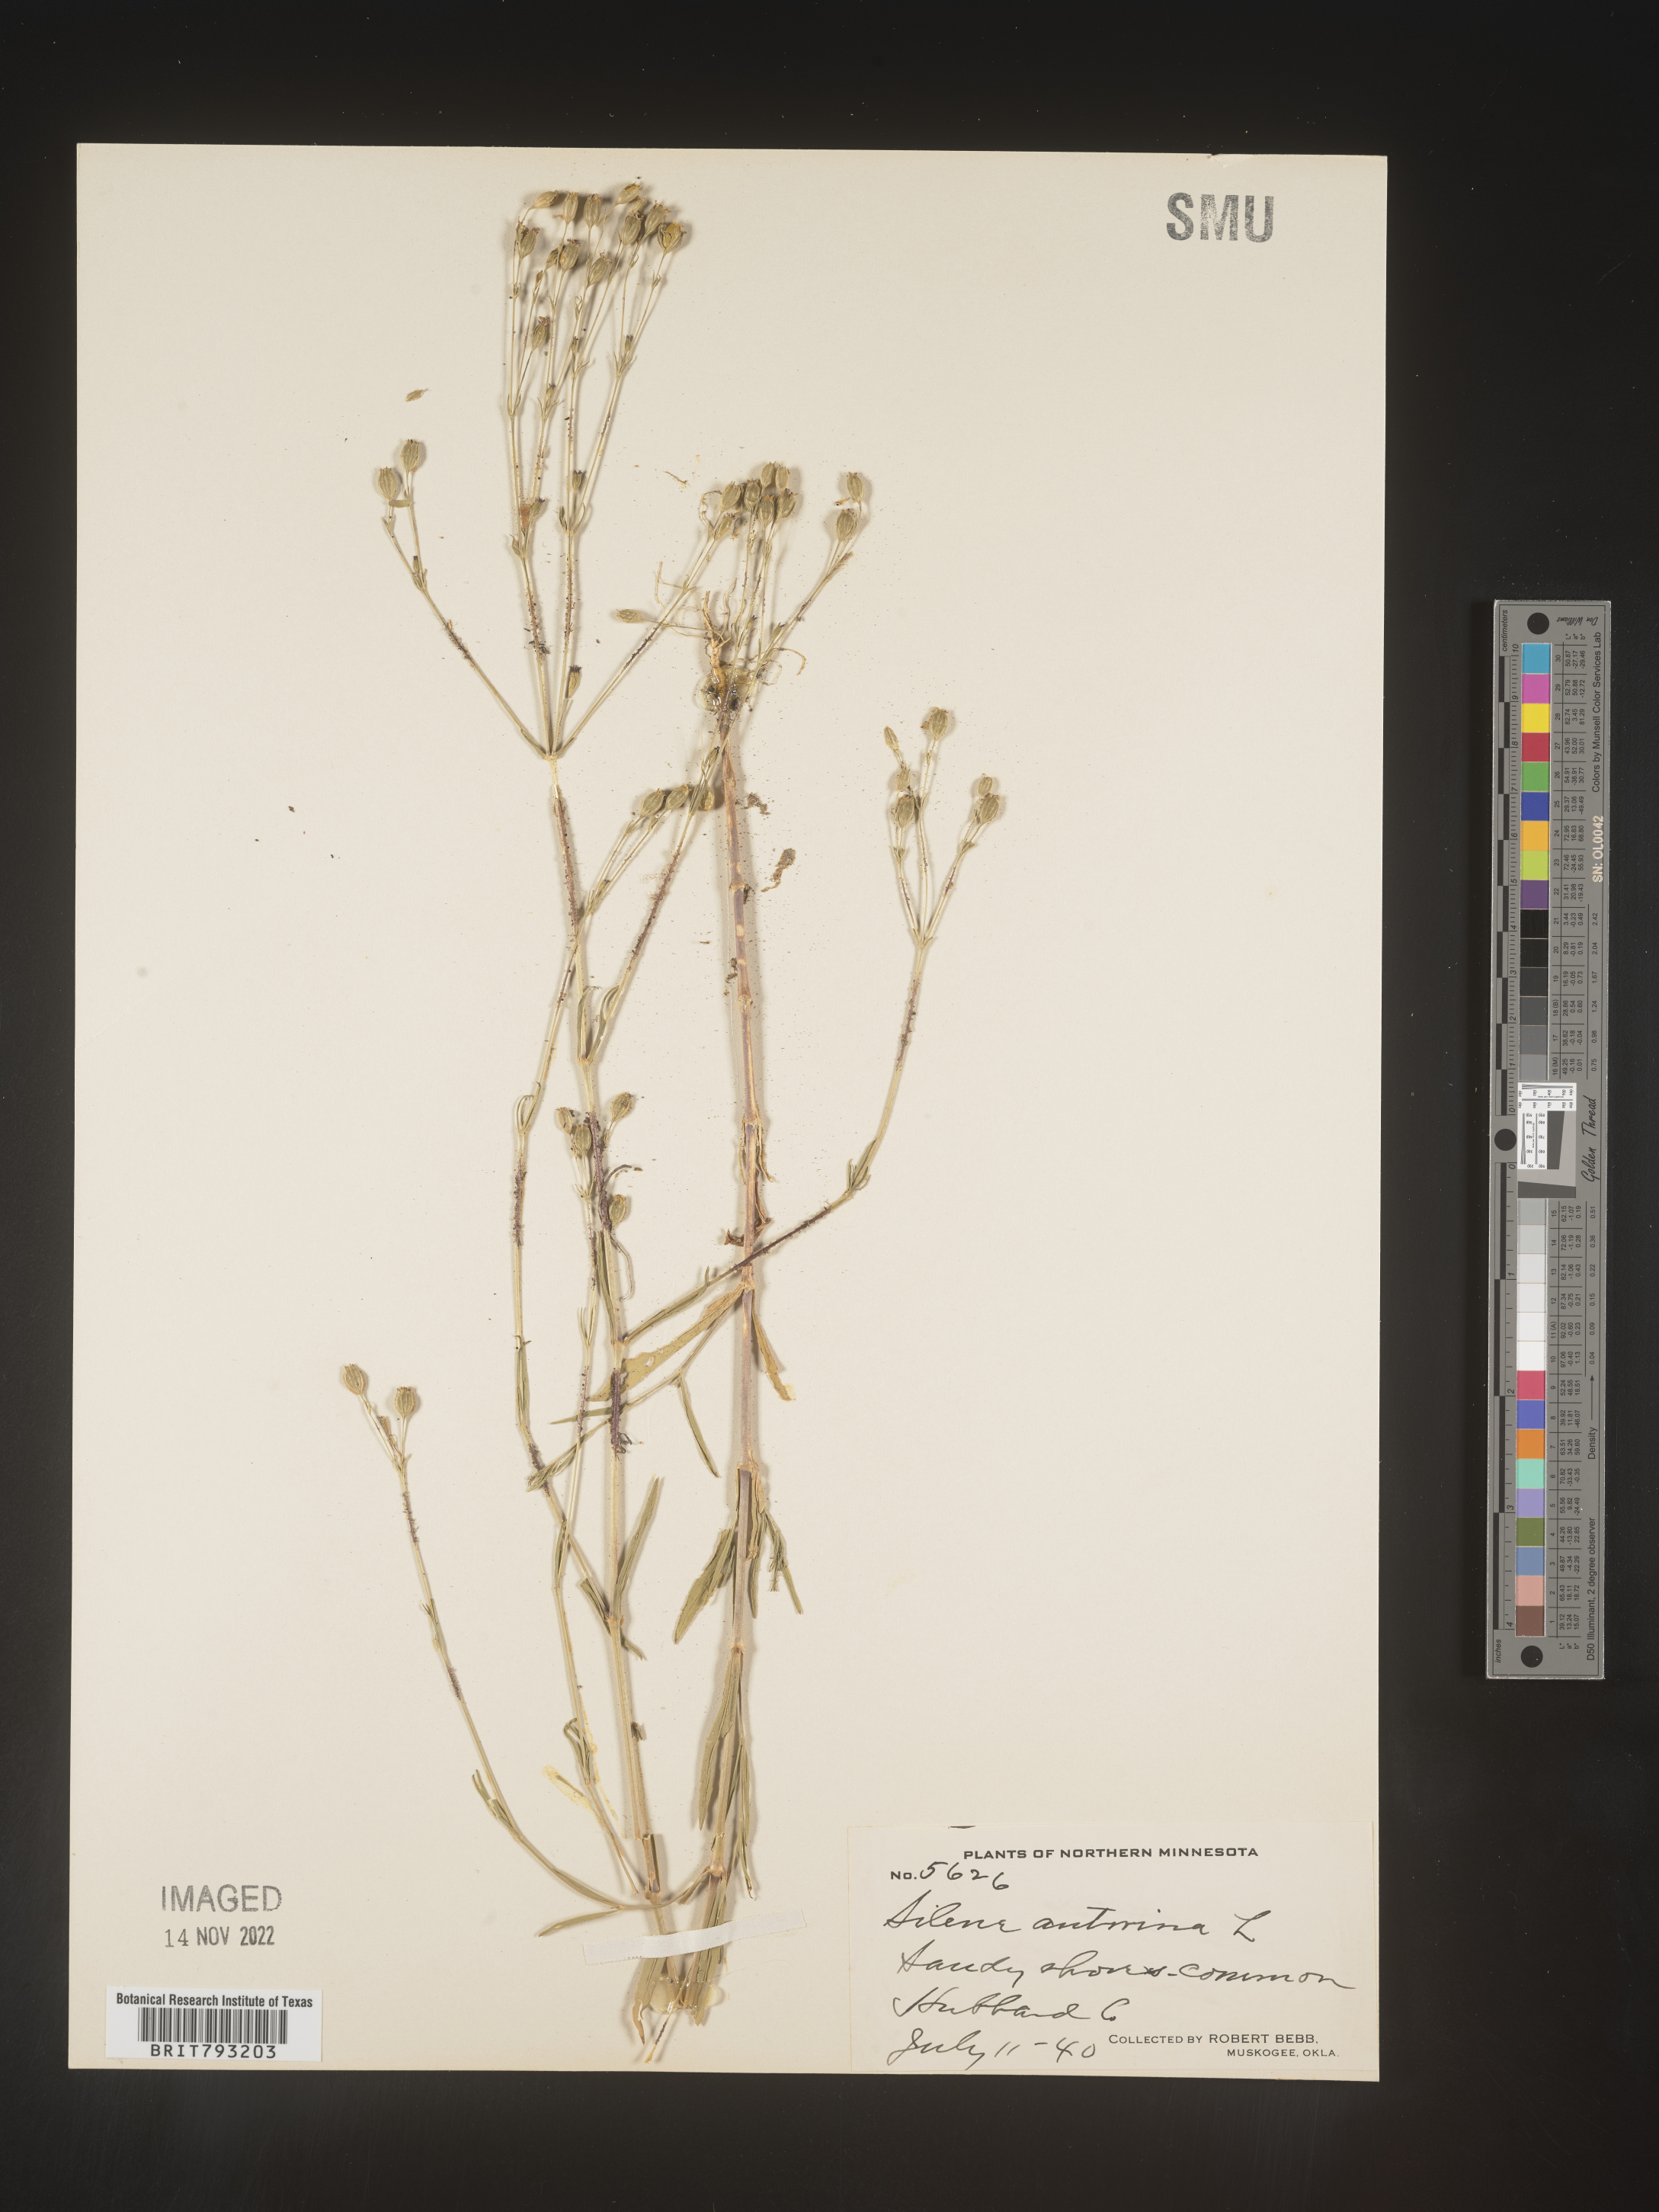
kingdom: Plantae
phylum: Tracheophyta
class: Magnoliopsida
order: Caryophyllales
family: Caryophyllaceae
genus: Silene
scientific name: Silene antirrhina
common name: Sleepy catchfly
